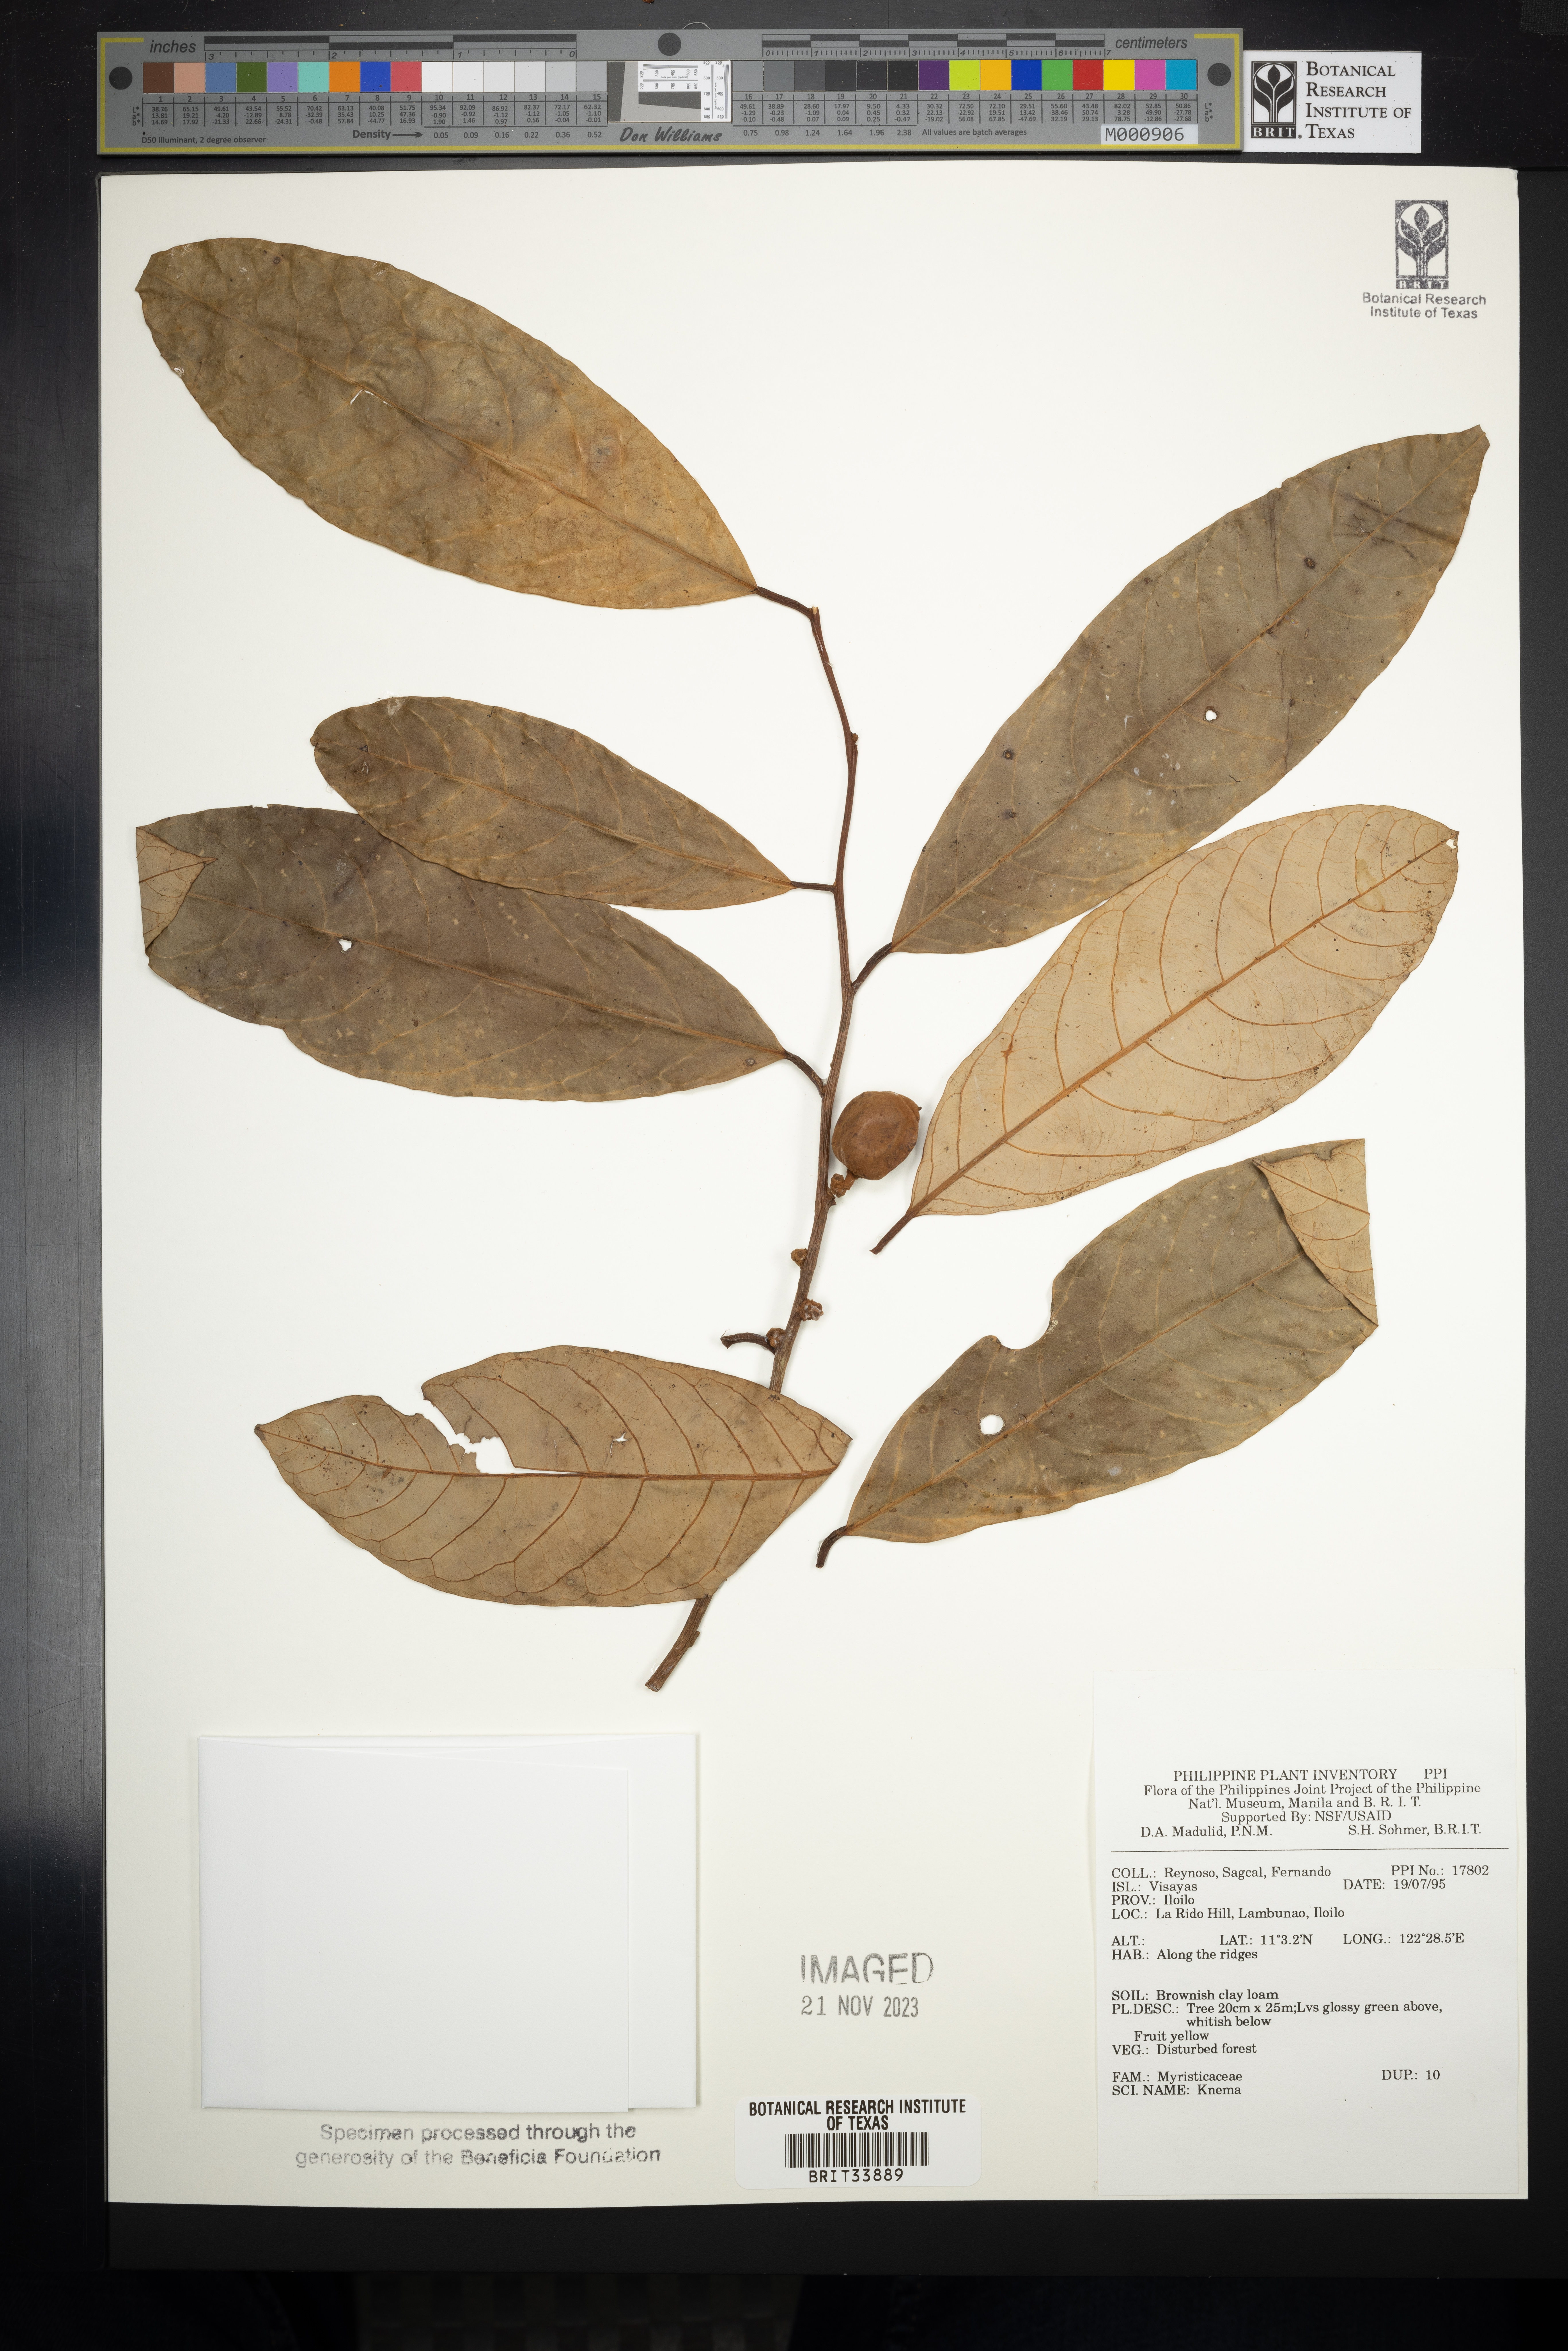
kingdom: Plantae
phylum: Tracheophyta
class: Magnoliopsida
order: Magnoliales
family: Myristicaceae
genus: Knema
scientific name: Knema
